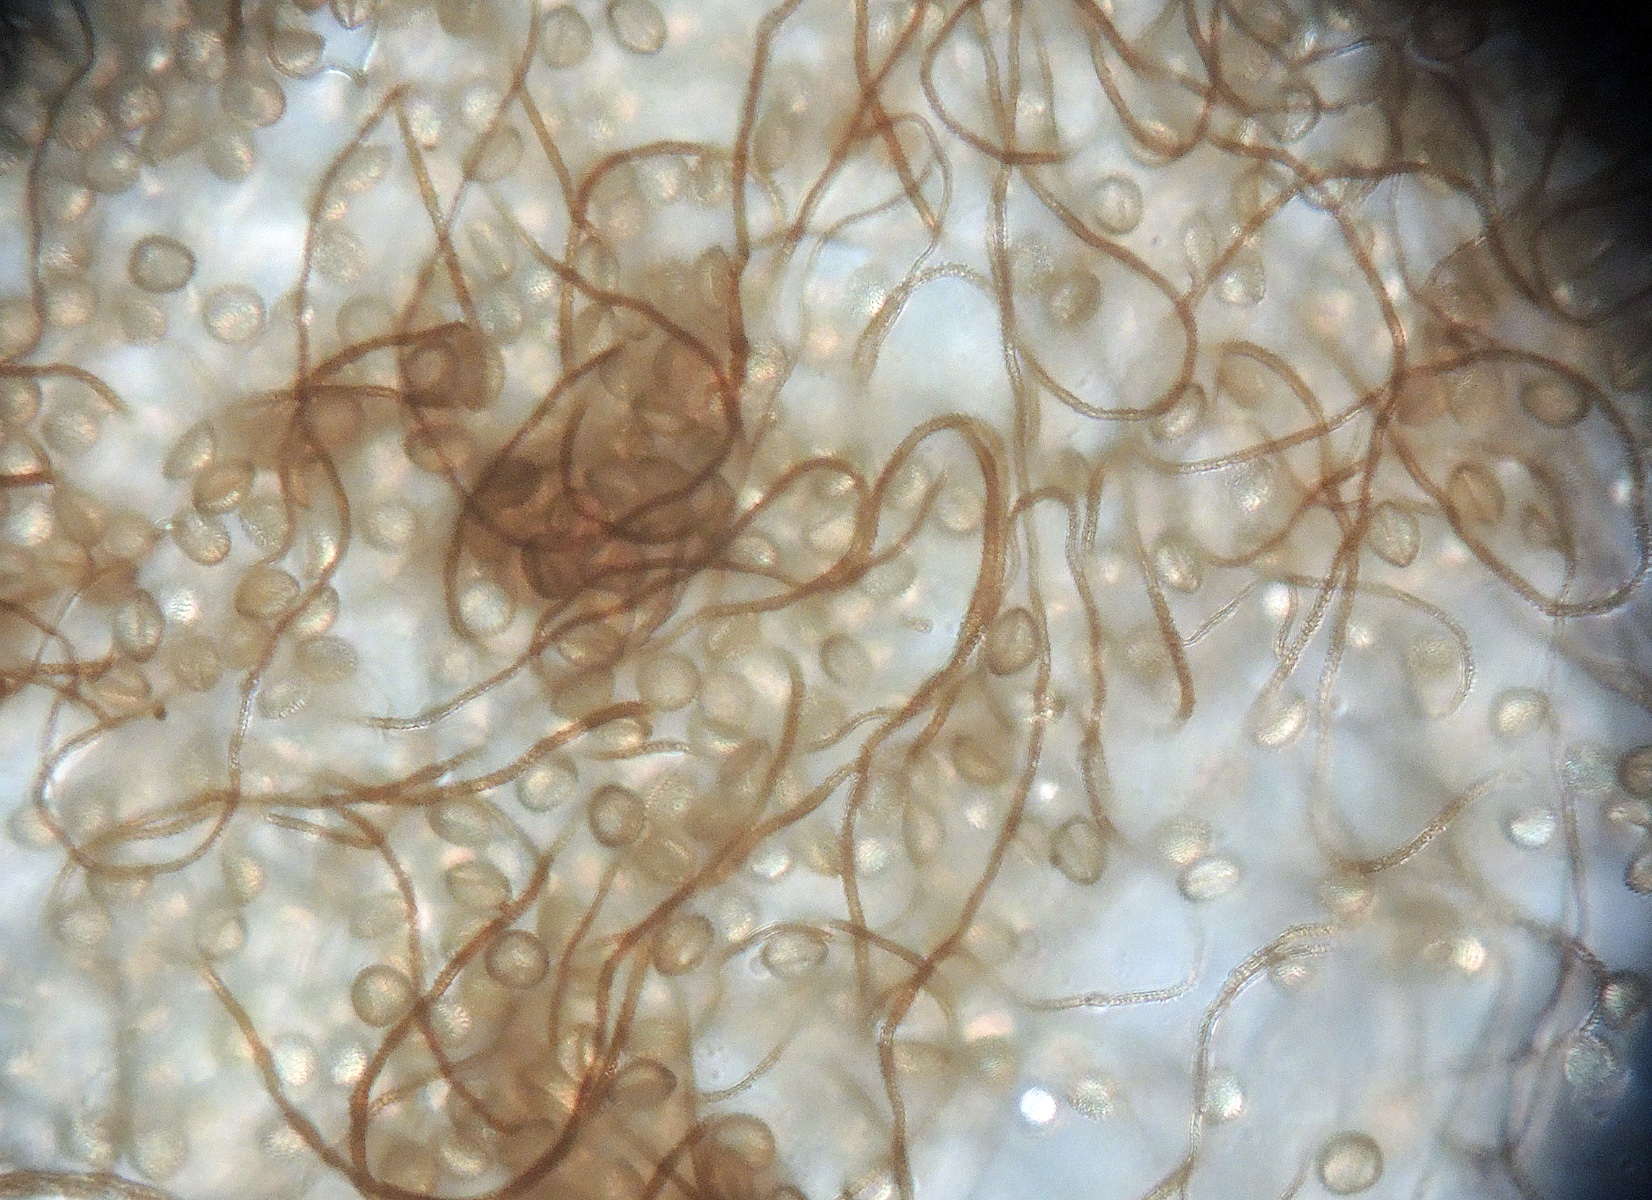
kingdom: Protozoa
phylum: Mycetozoa
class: Myxomycetes
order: Trichiales
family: Dianemataceae
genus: Calomyxa
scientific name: Calomyxa metallica
